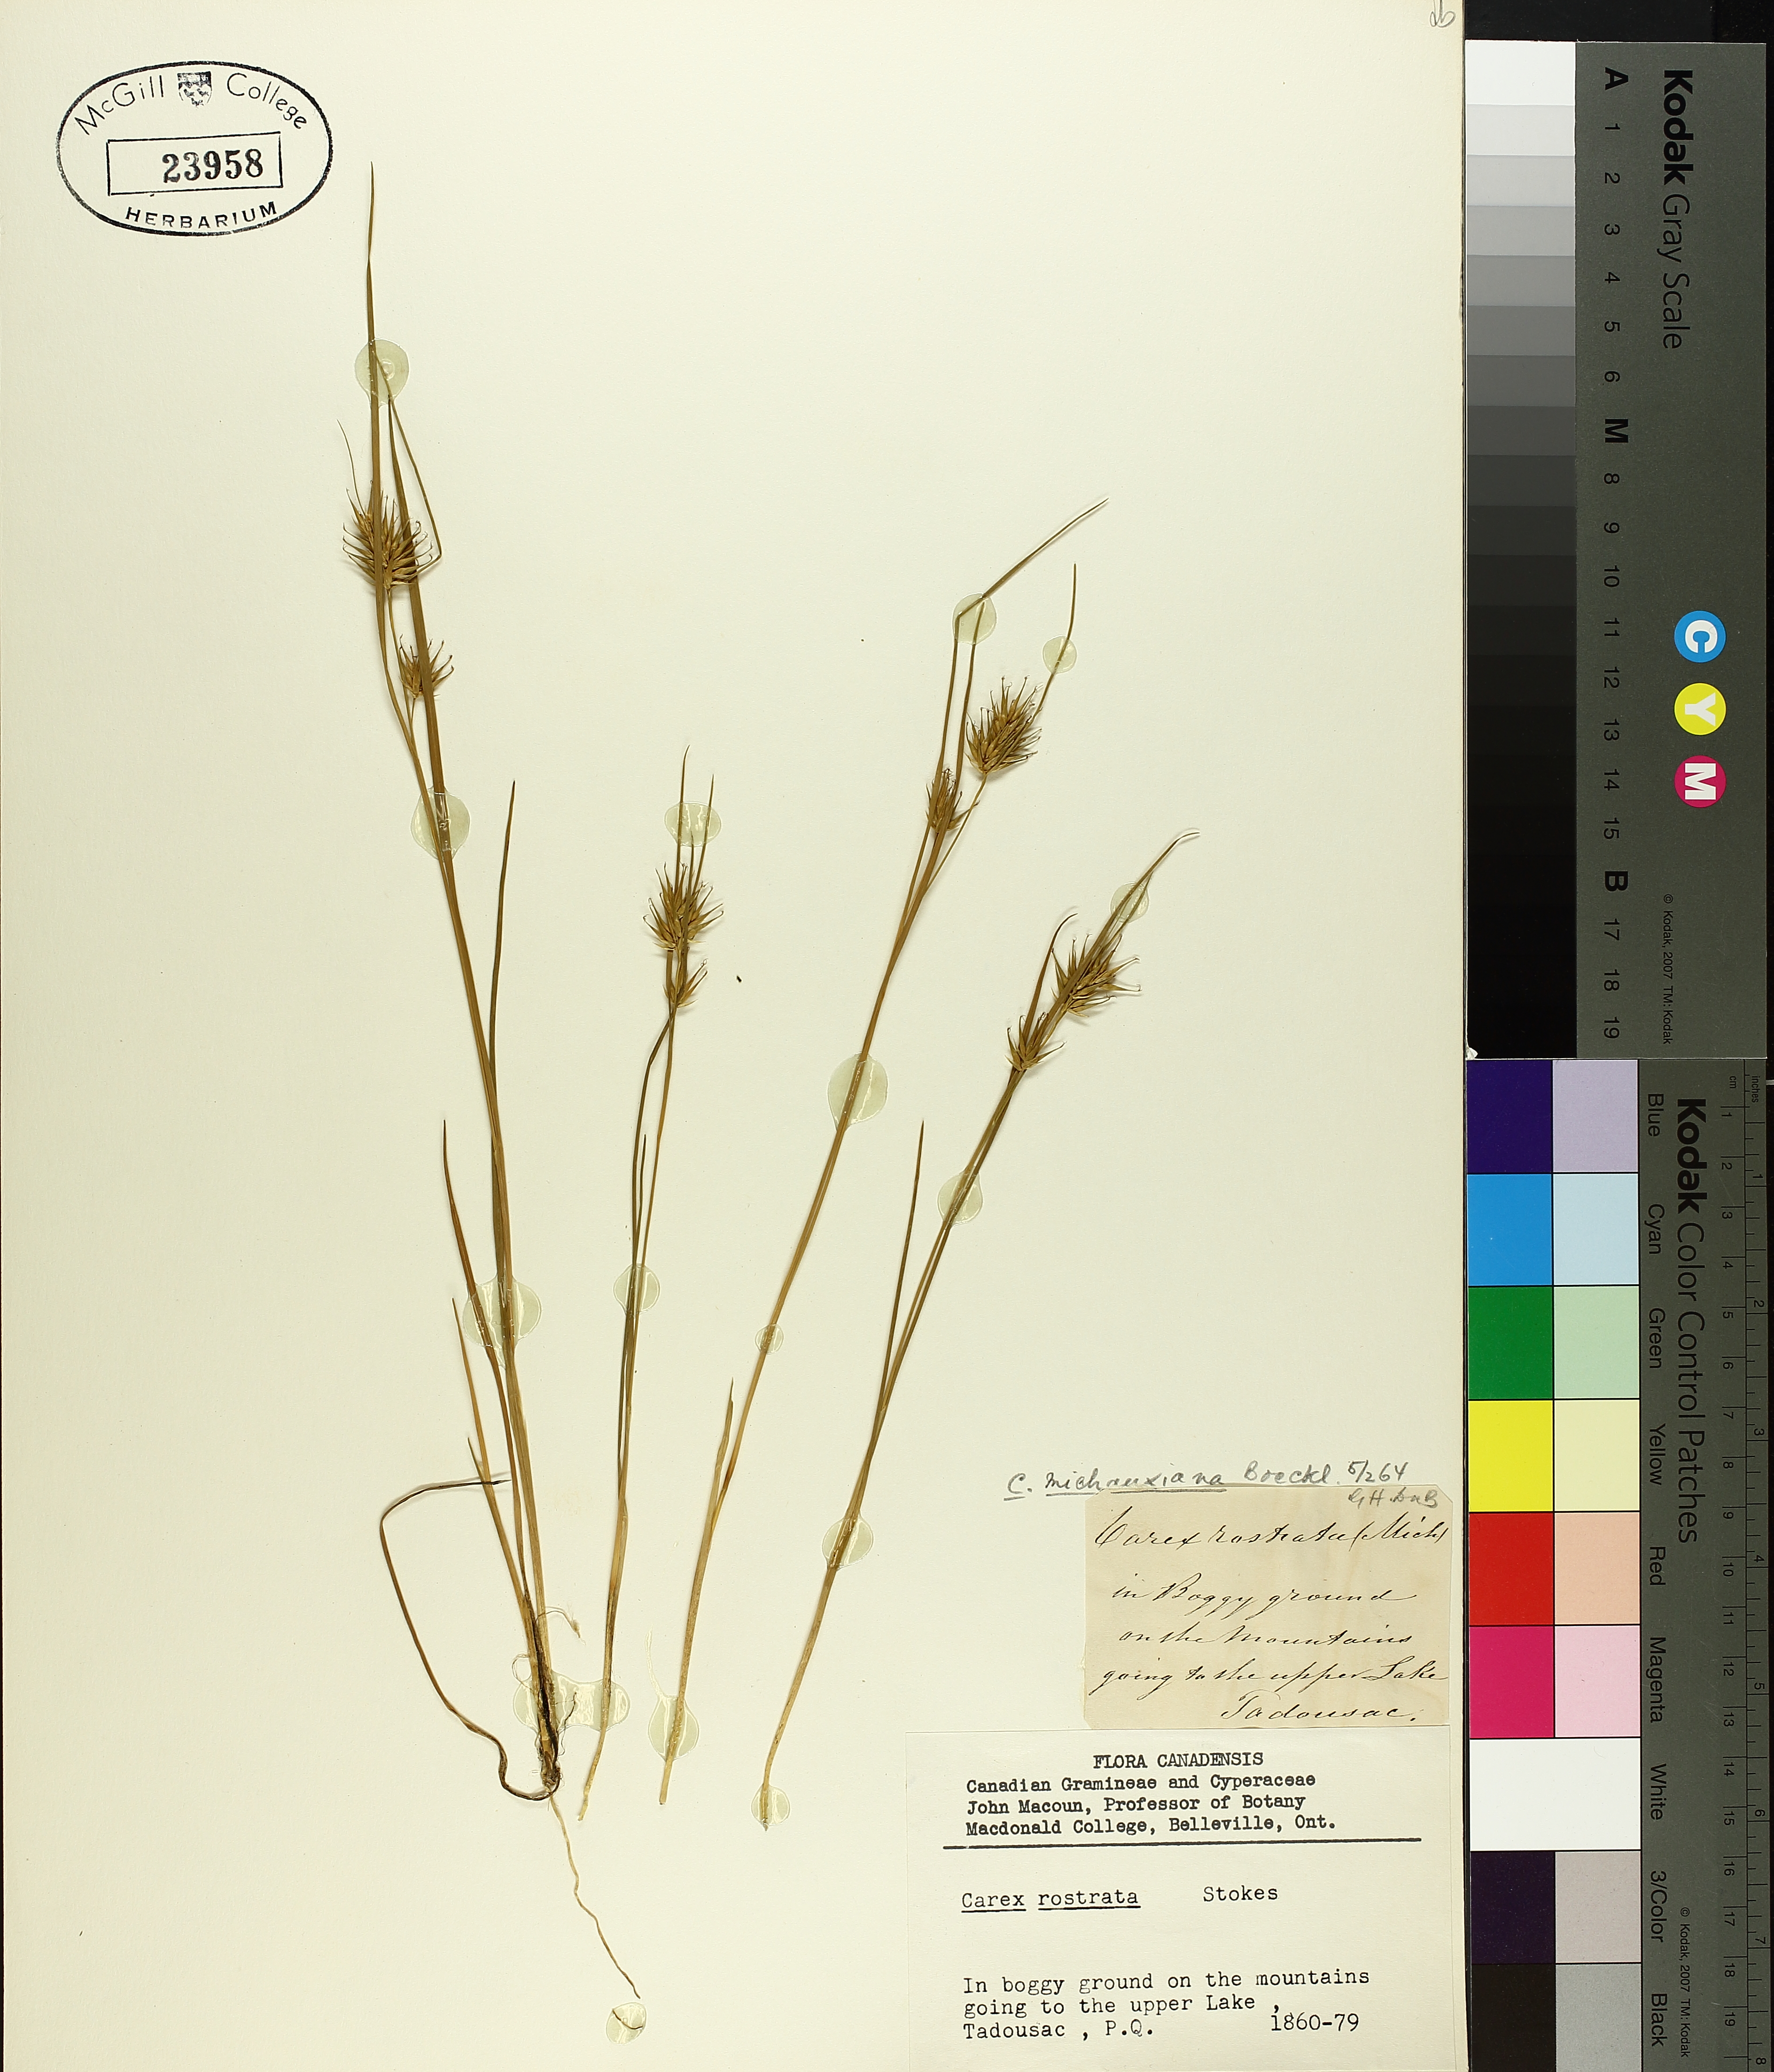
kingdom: Plantae
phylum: Tracheophyta
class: Liliopsida
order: Poales
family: Cyperaceae
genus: Carex
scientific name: Carex michauxiana
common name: Michaux's sedge
